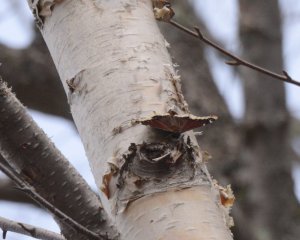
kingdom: Animalia
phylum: Arthropoda
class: Insecta
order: Lepidoptera
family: Nymphalidae
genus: Nymphalis
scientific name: Nymphalis antiopa
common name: Mourning Cloak
